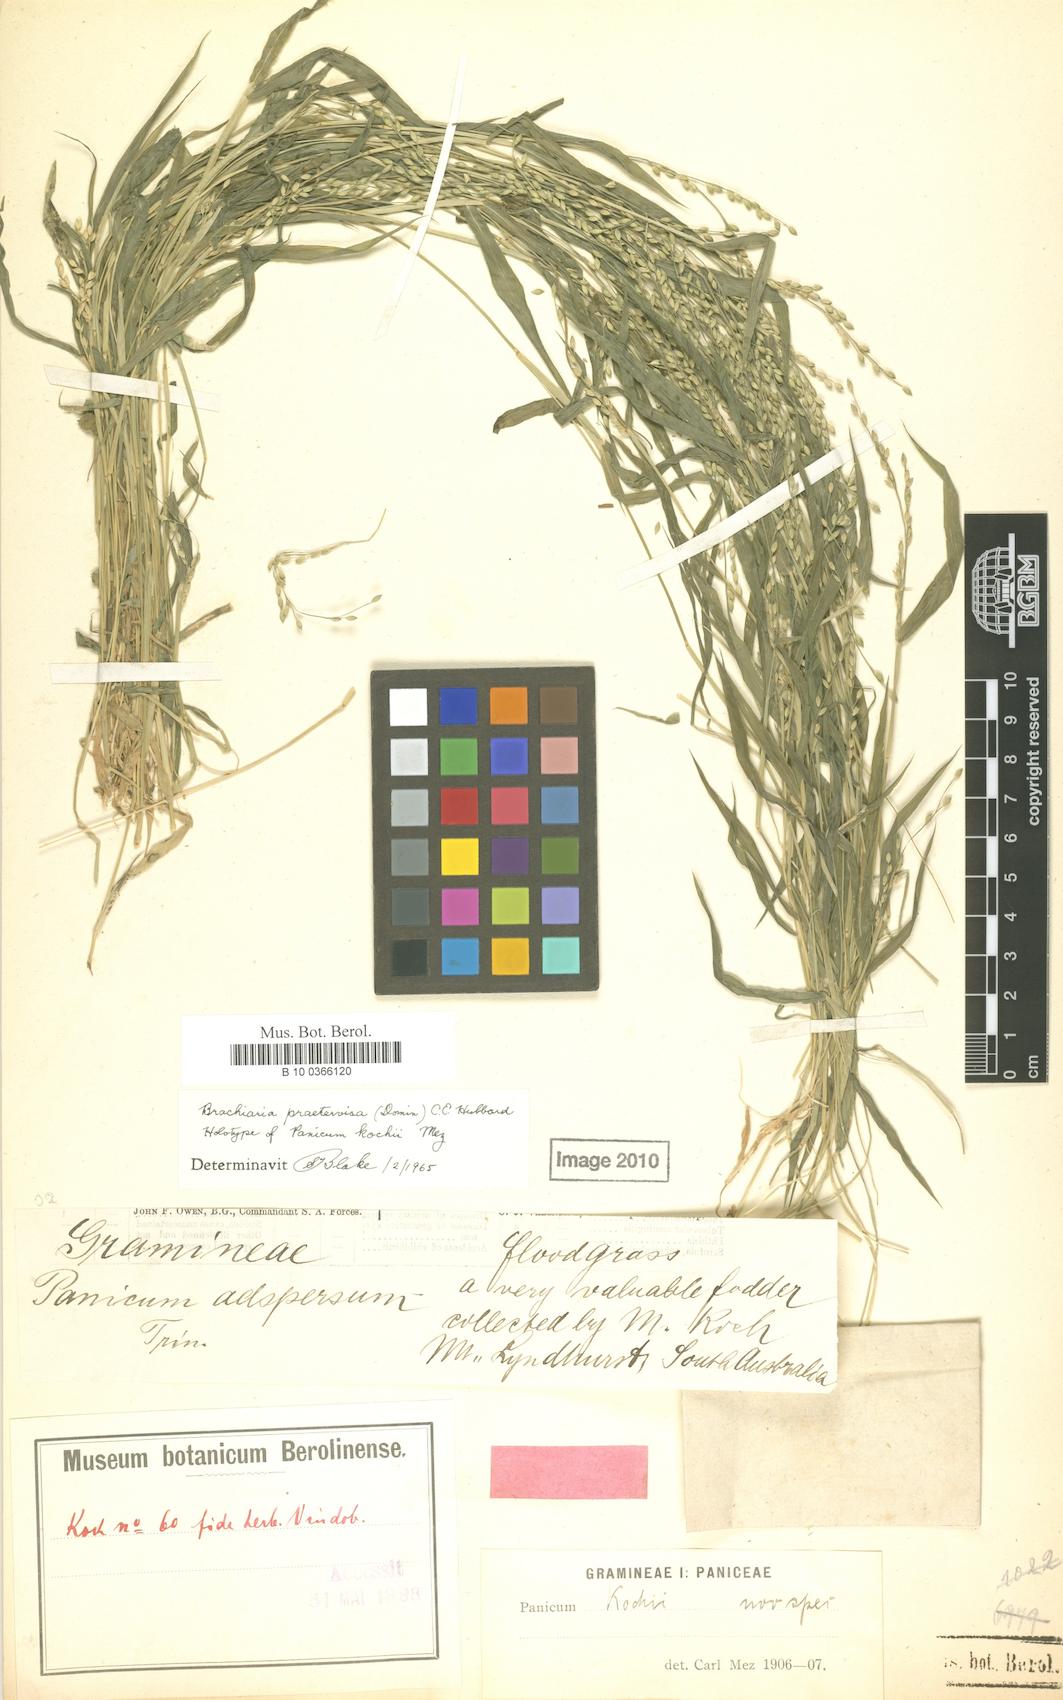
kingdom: Plantae
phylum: Tracheophyta
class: Liliopsida
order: Poales
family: Poaceae
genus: Urochloa
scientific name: Urochloa praetervisa
